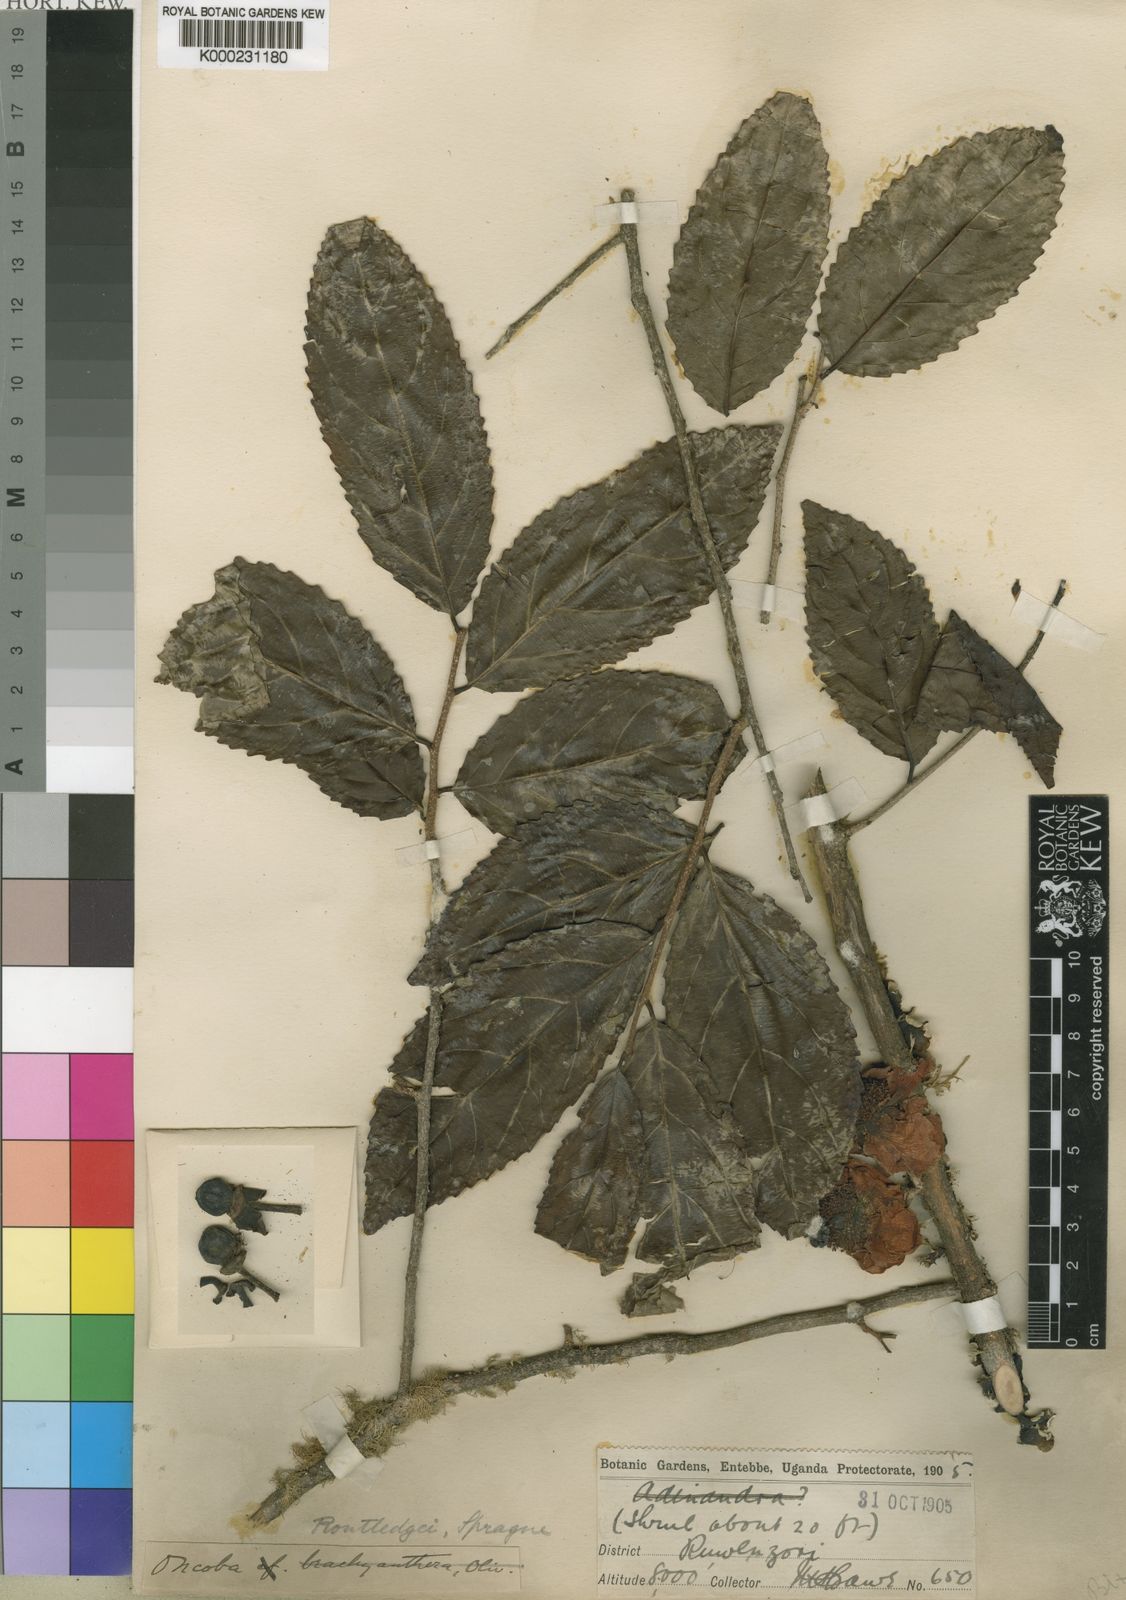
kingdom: Plantae
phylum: Tracheophyta
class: Magnoliopsida
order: Malpighiales
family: Salicaceae
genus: Oncoba
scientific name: Oncoba routledgei
